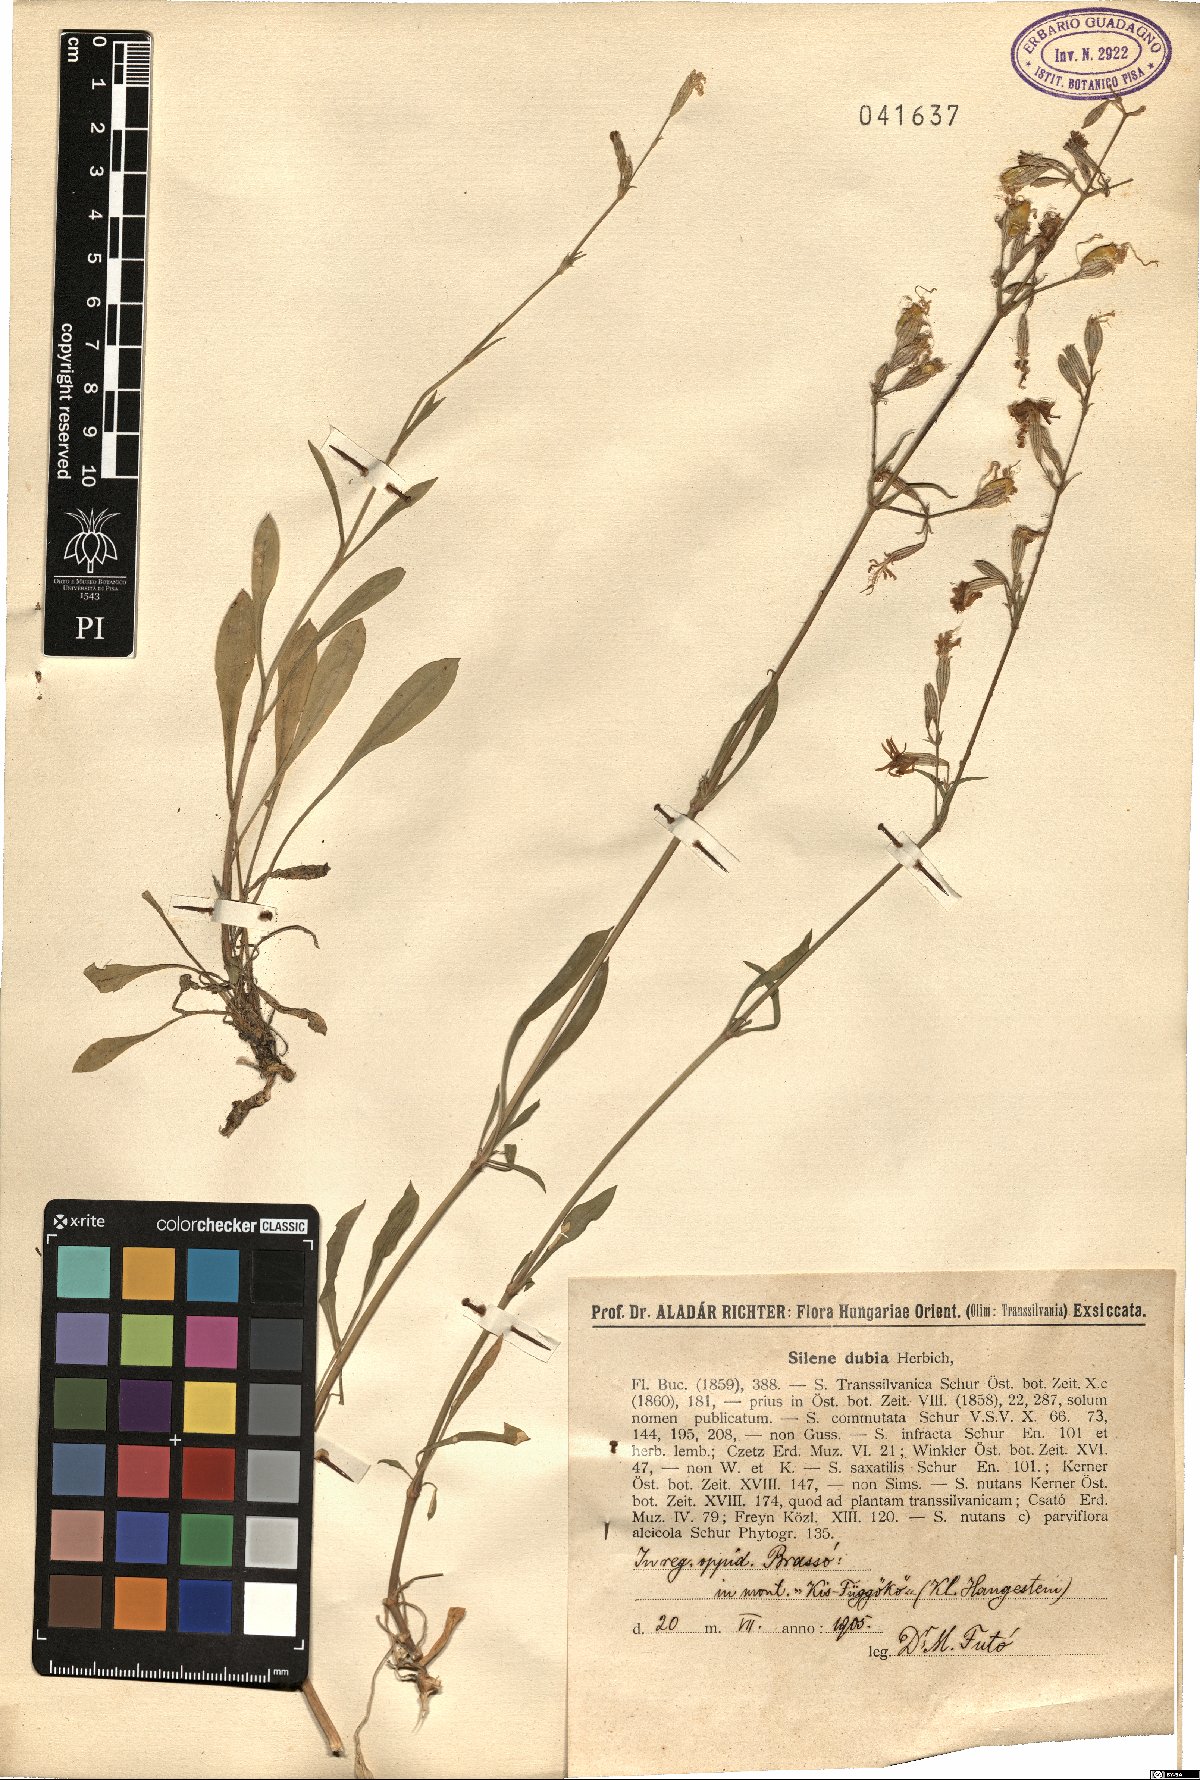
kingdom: Plantae
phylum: Tracheophyta
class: Magnoliopsida
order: Caryophyllales
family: Caryophyllaceae
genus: Silene
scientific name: Silene nutans
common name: Nottingham catchfly
